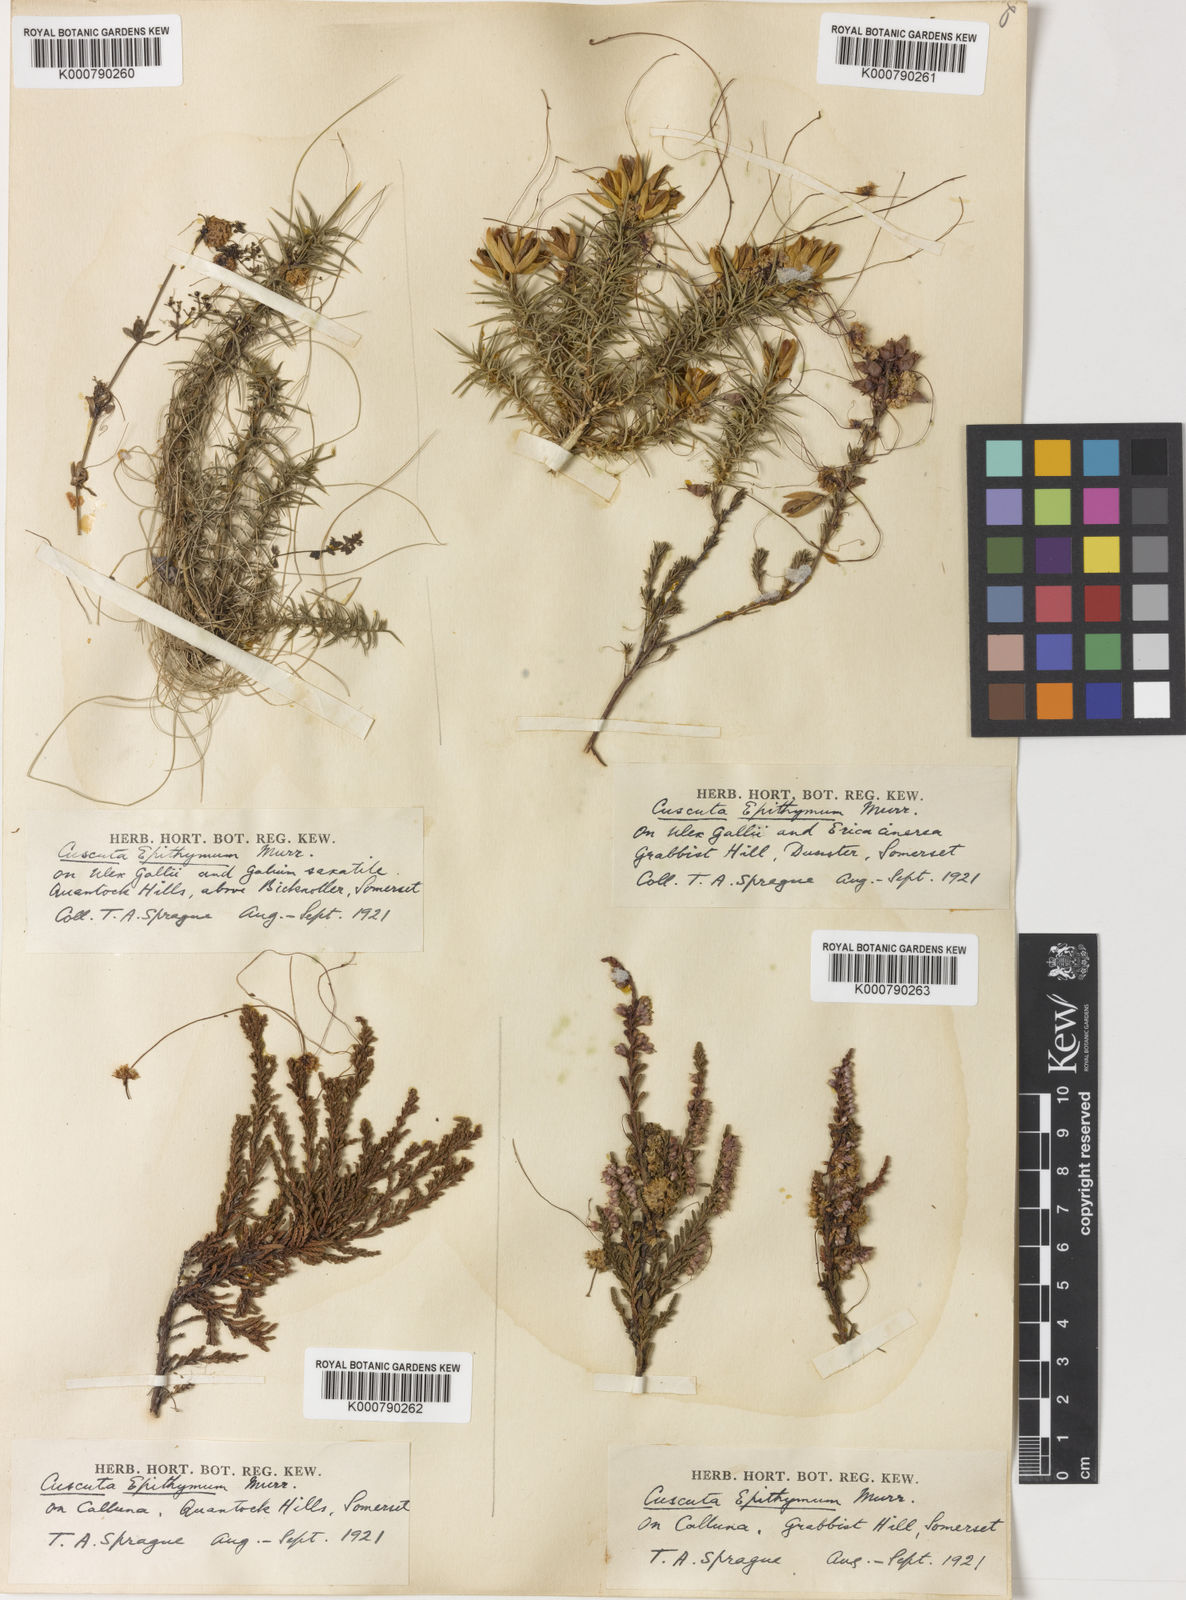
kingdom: Plantae
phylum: Tracheophyta
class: Magnoliopsida
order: Solanales
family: Convolvulaceae
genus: Cuscuta
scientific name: Cuscuta epithymum
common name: Clover dodder
